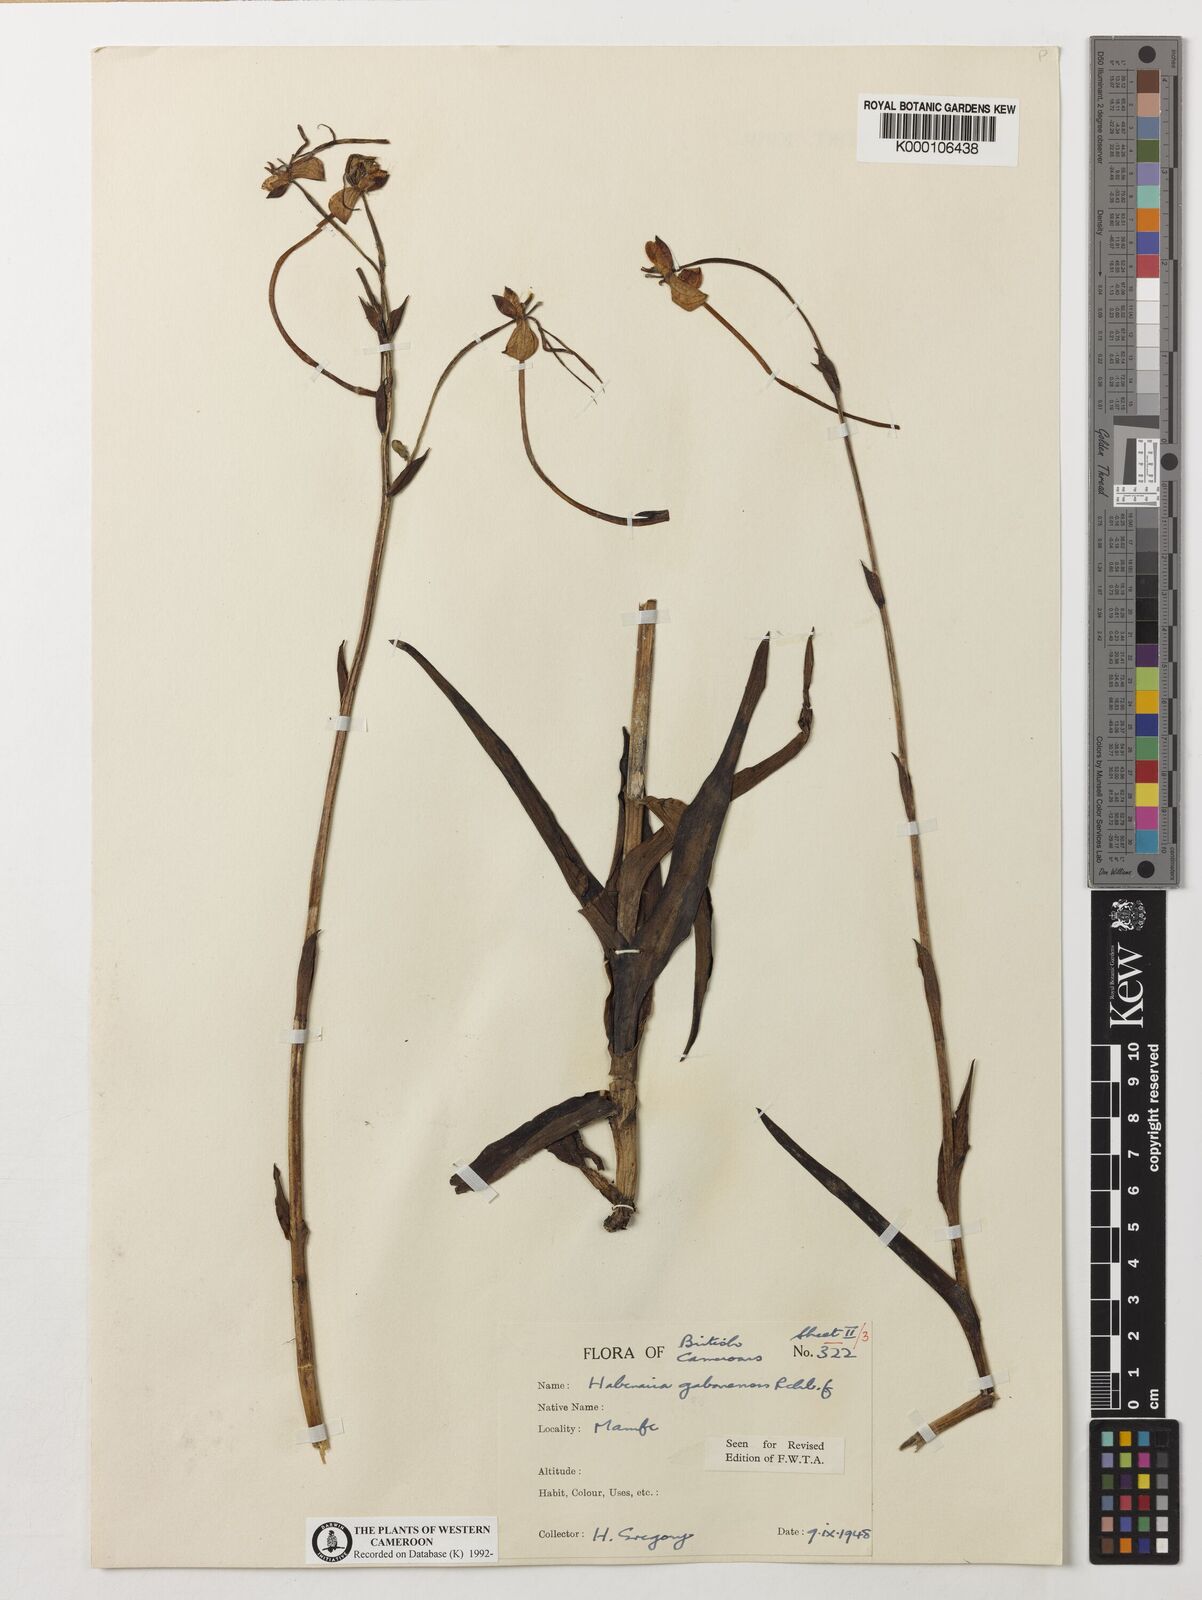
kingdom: Plantae
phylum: Tracheophyta
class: Liliopsida
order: Asparagales
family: Orchidaceae
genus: Habenaria
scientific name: Habenaria procera
